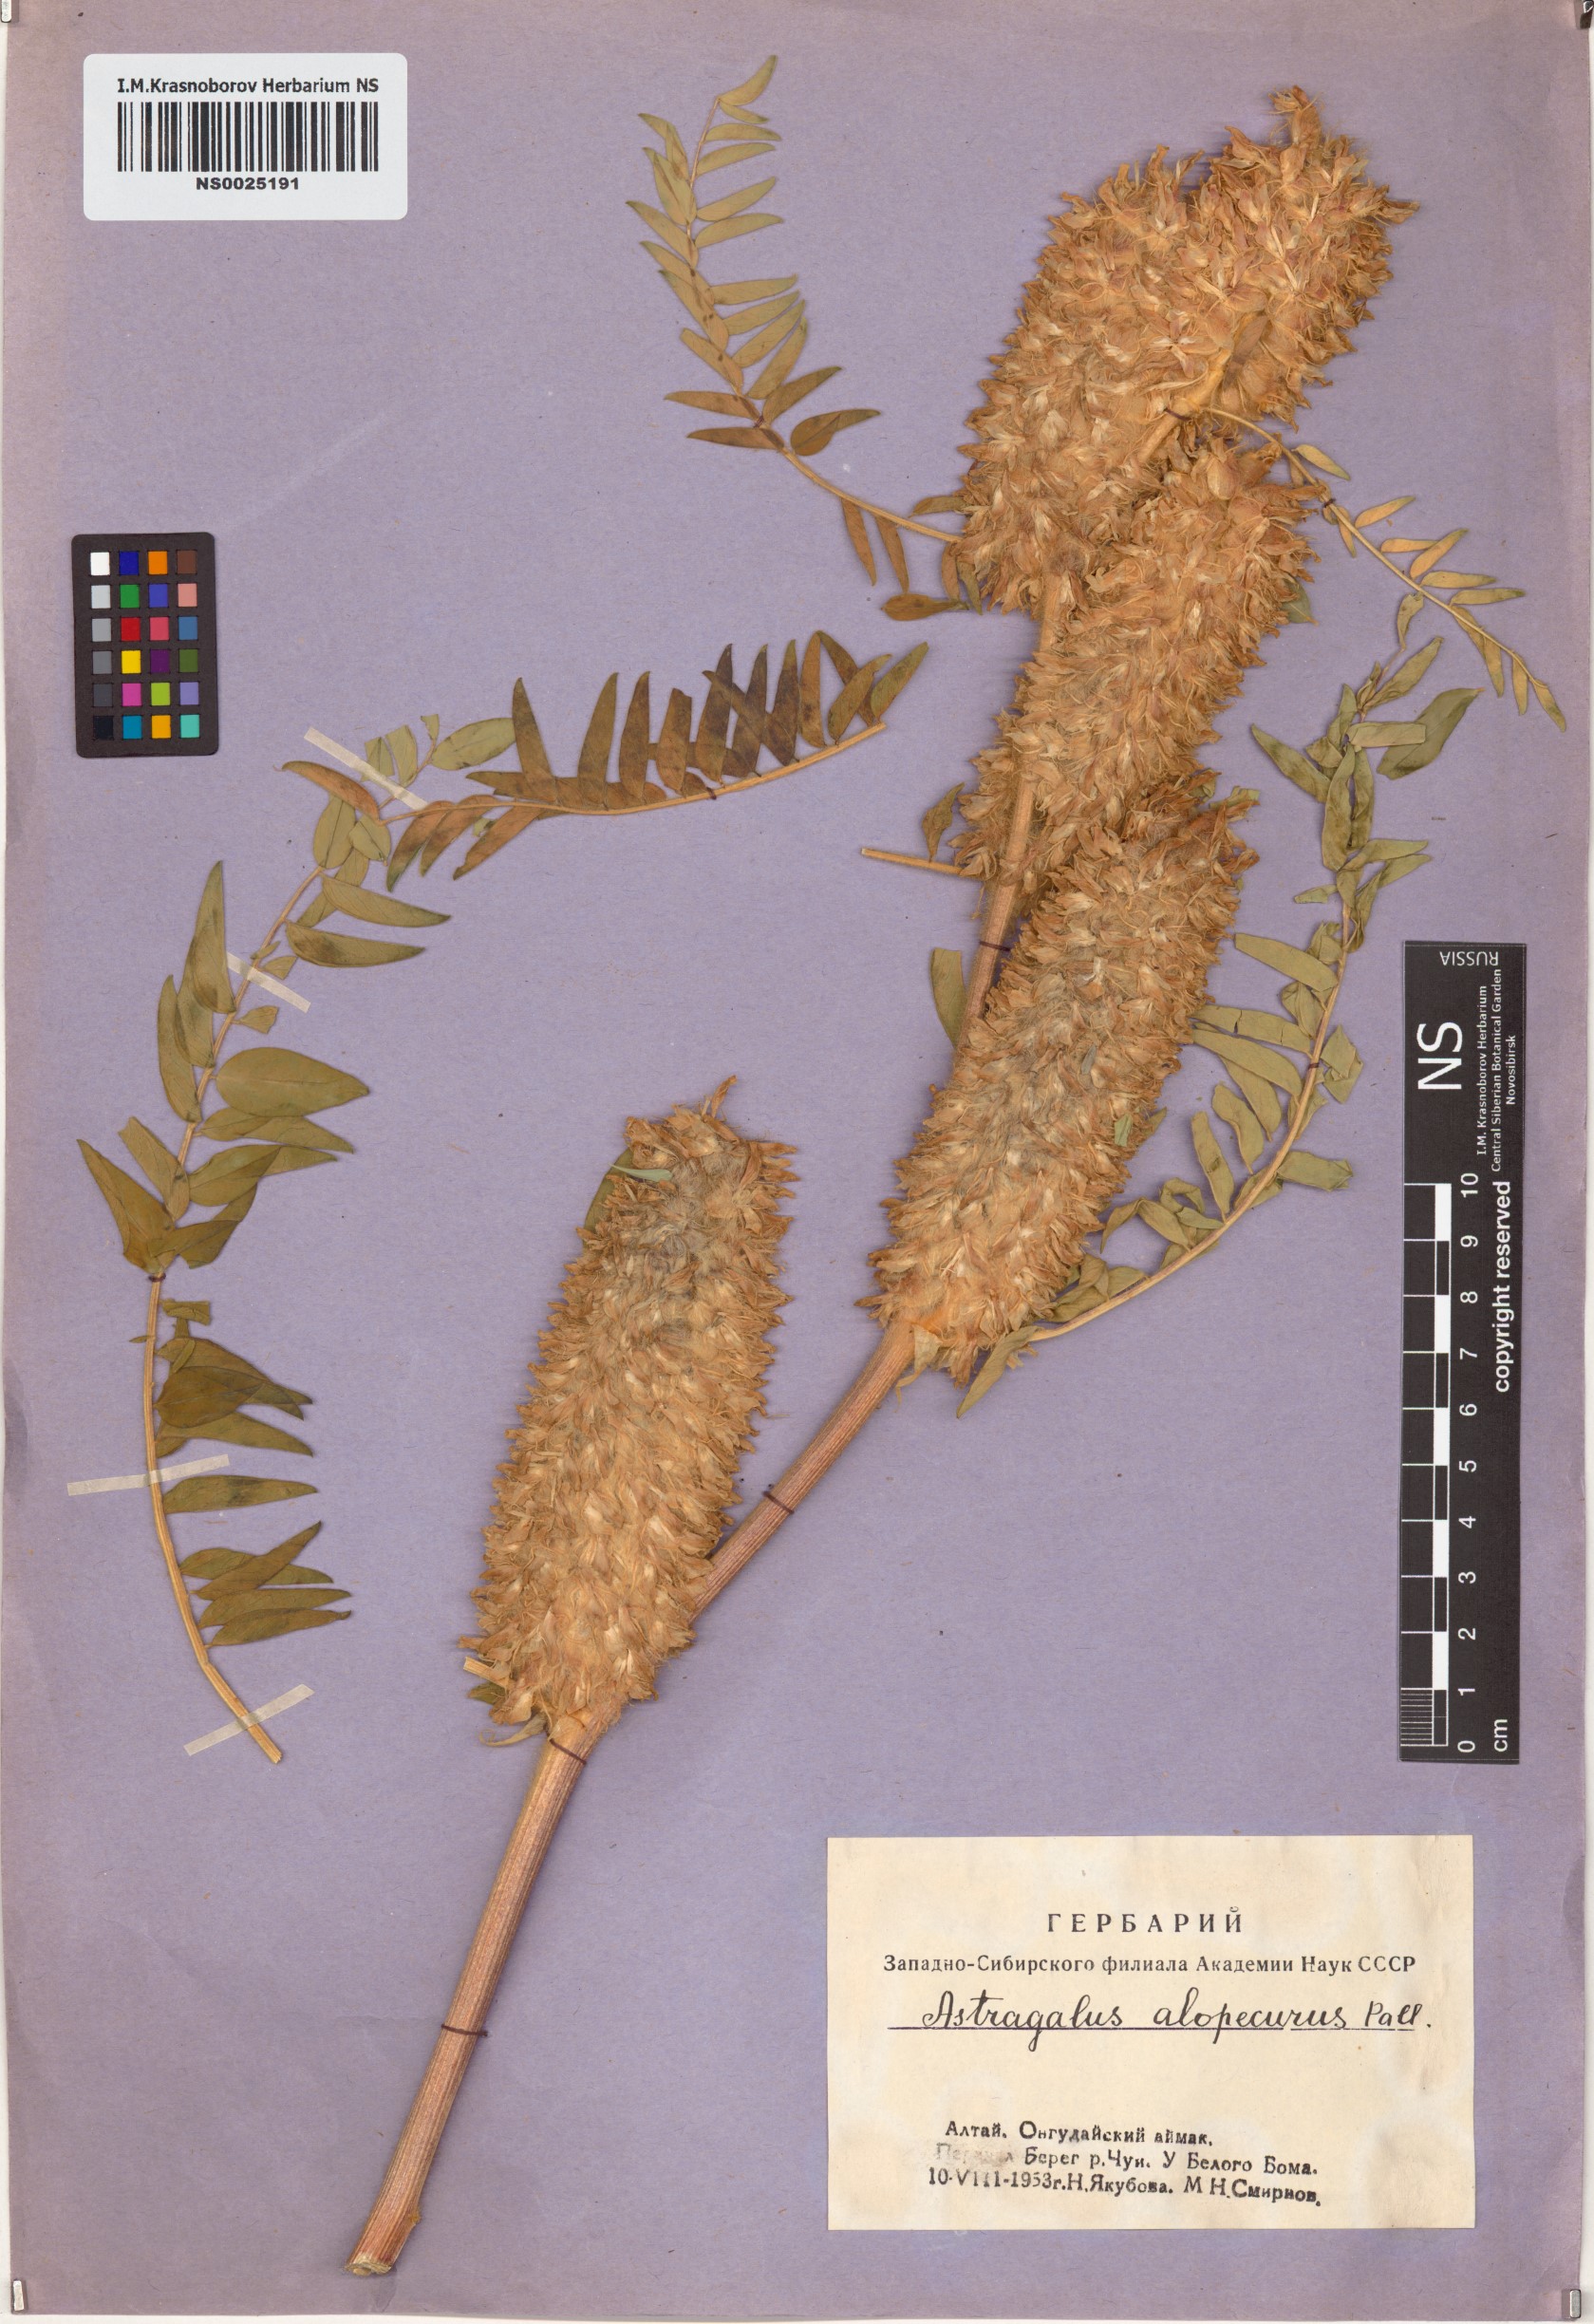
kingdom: Plantae
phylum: Tracheophyta
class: Magnoliopsida
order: Fabales
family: Fabaceae
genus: Astragalus
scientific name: Astragalus alopecurus
